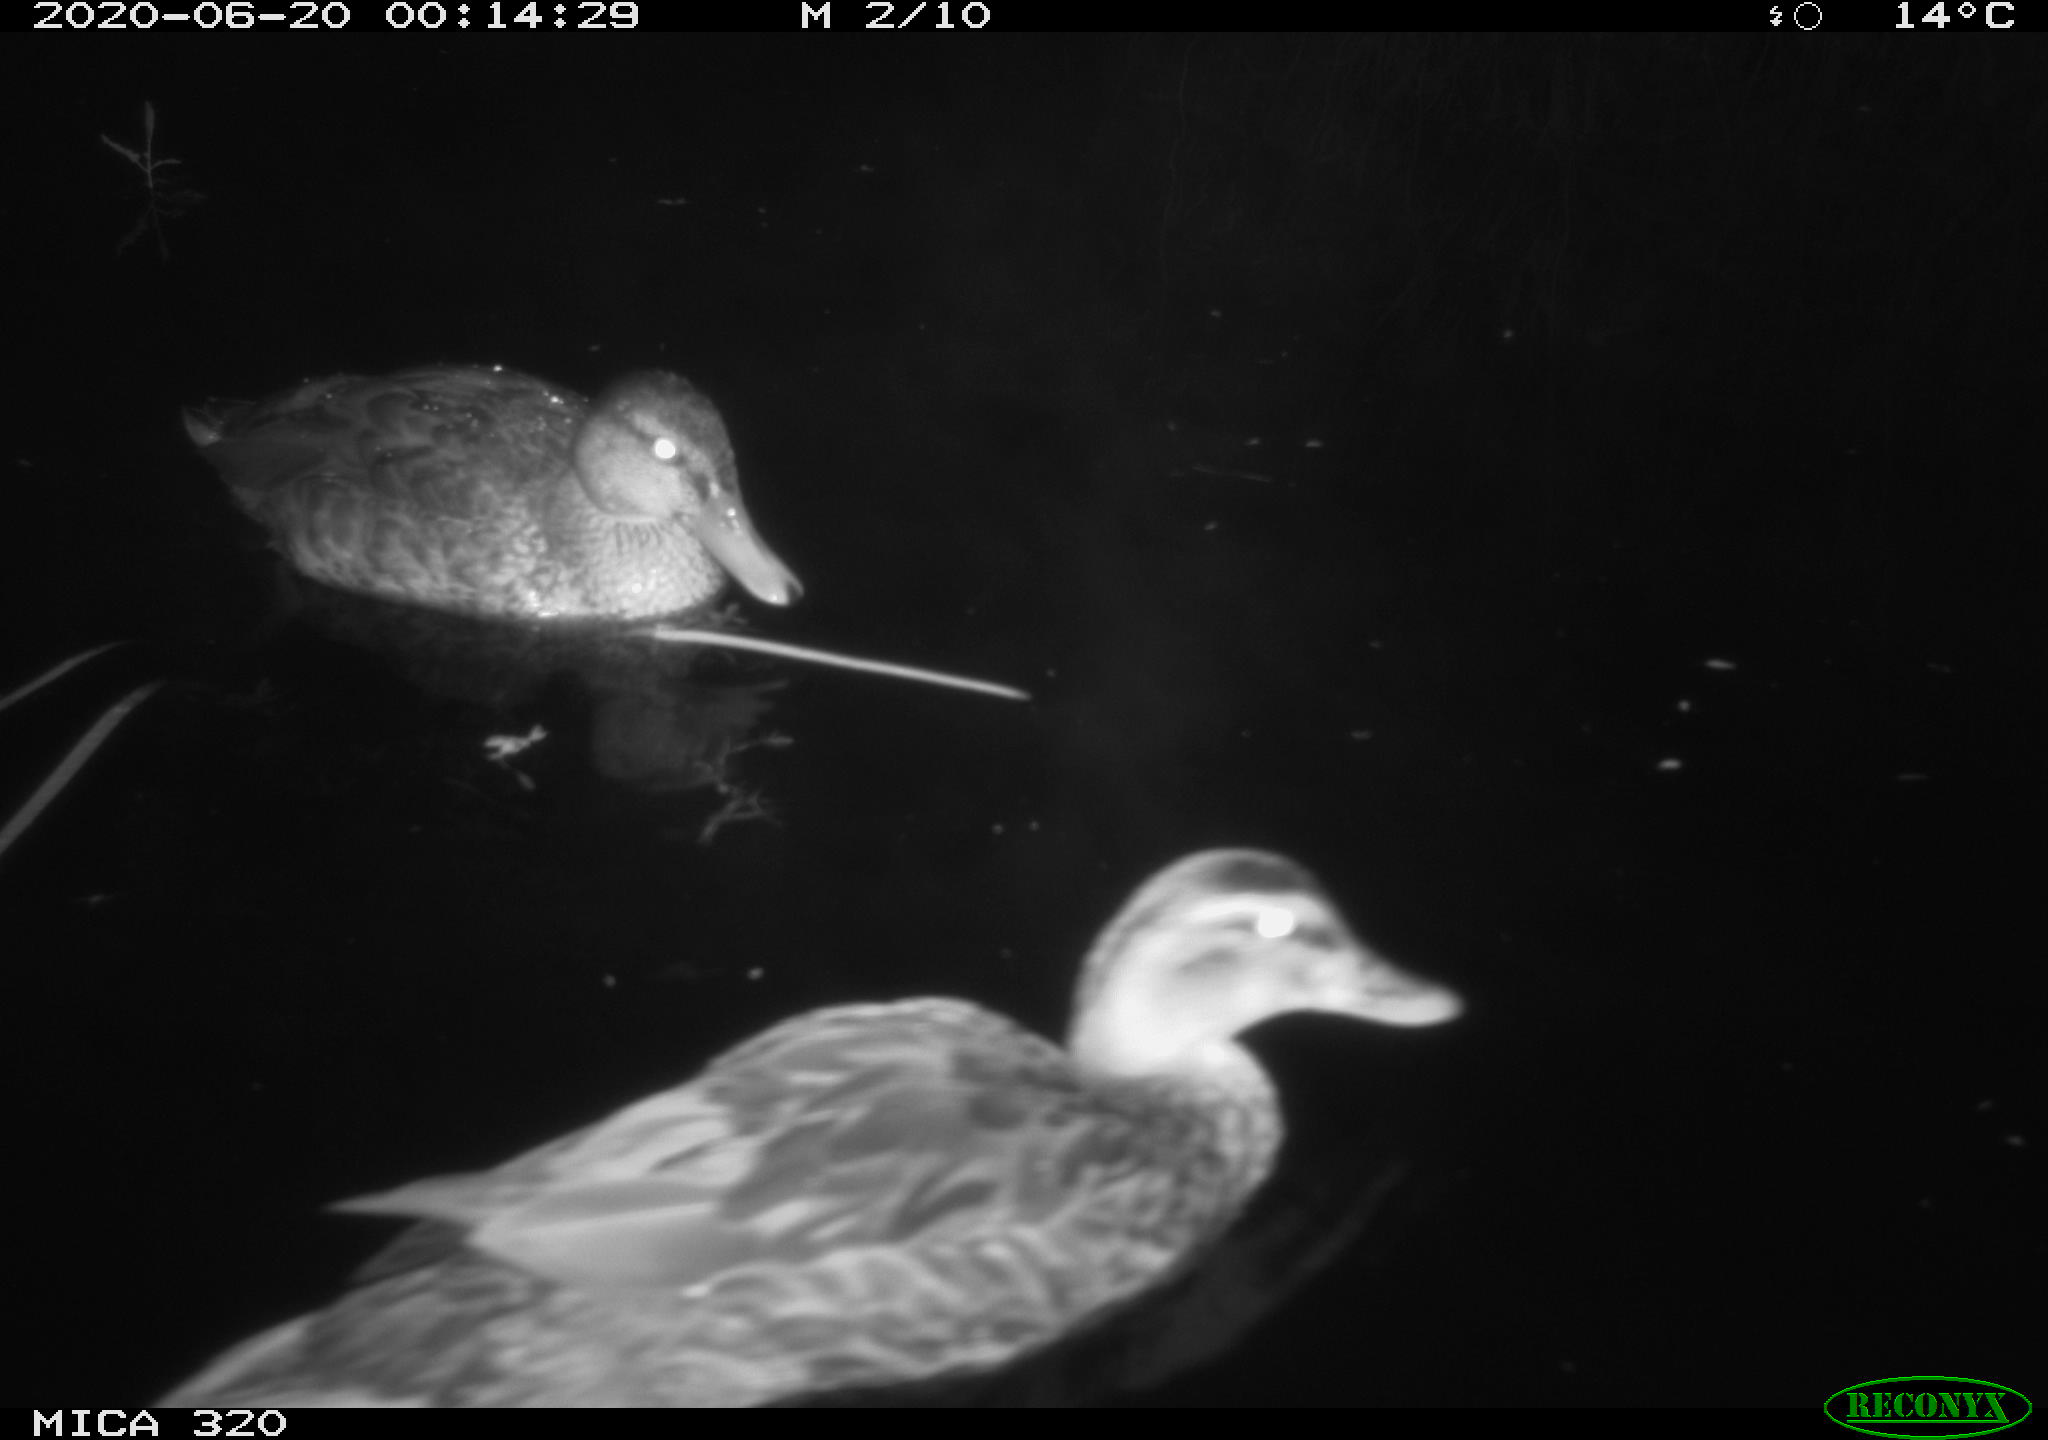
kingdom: Animalia
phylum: Chordata
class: Aves
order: Anseriformes
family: Anatidae
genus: Anas
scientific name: Anas platyrhynchos
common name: Mallard
